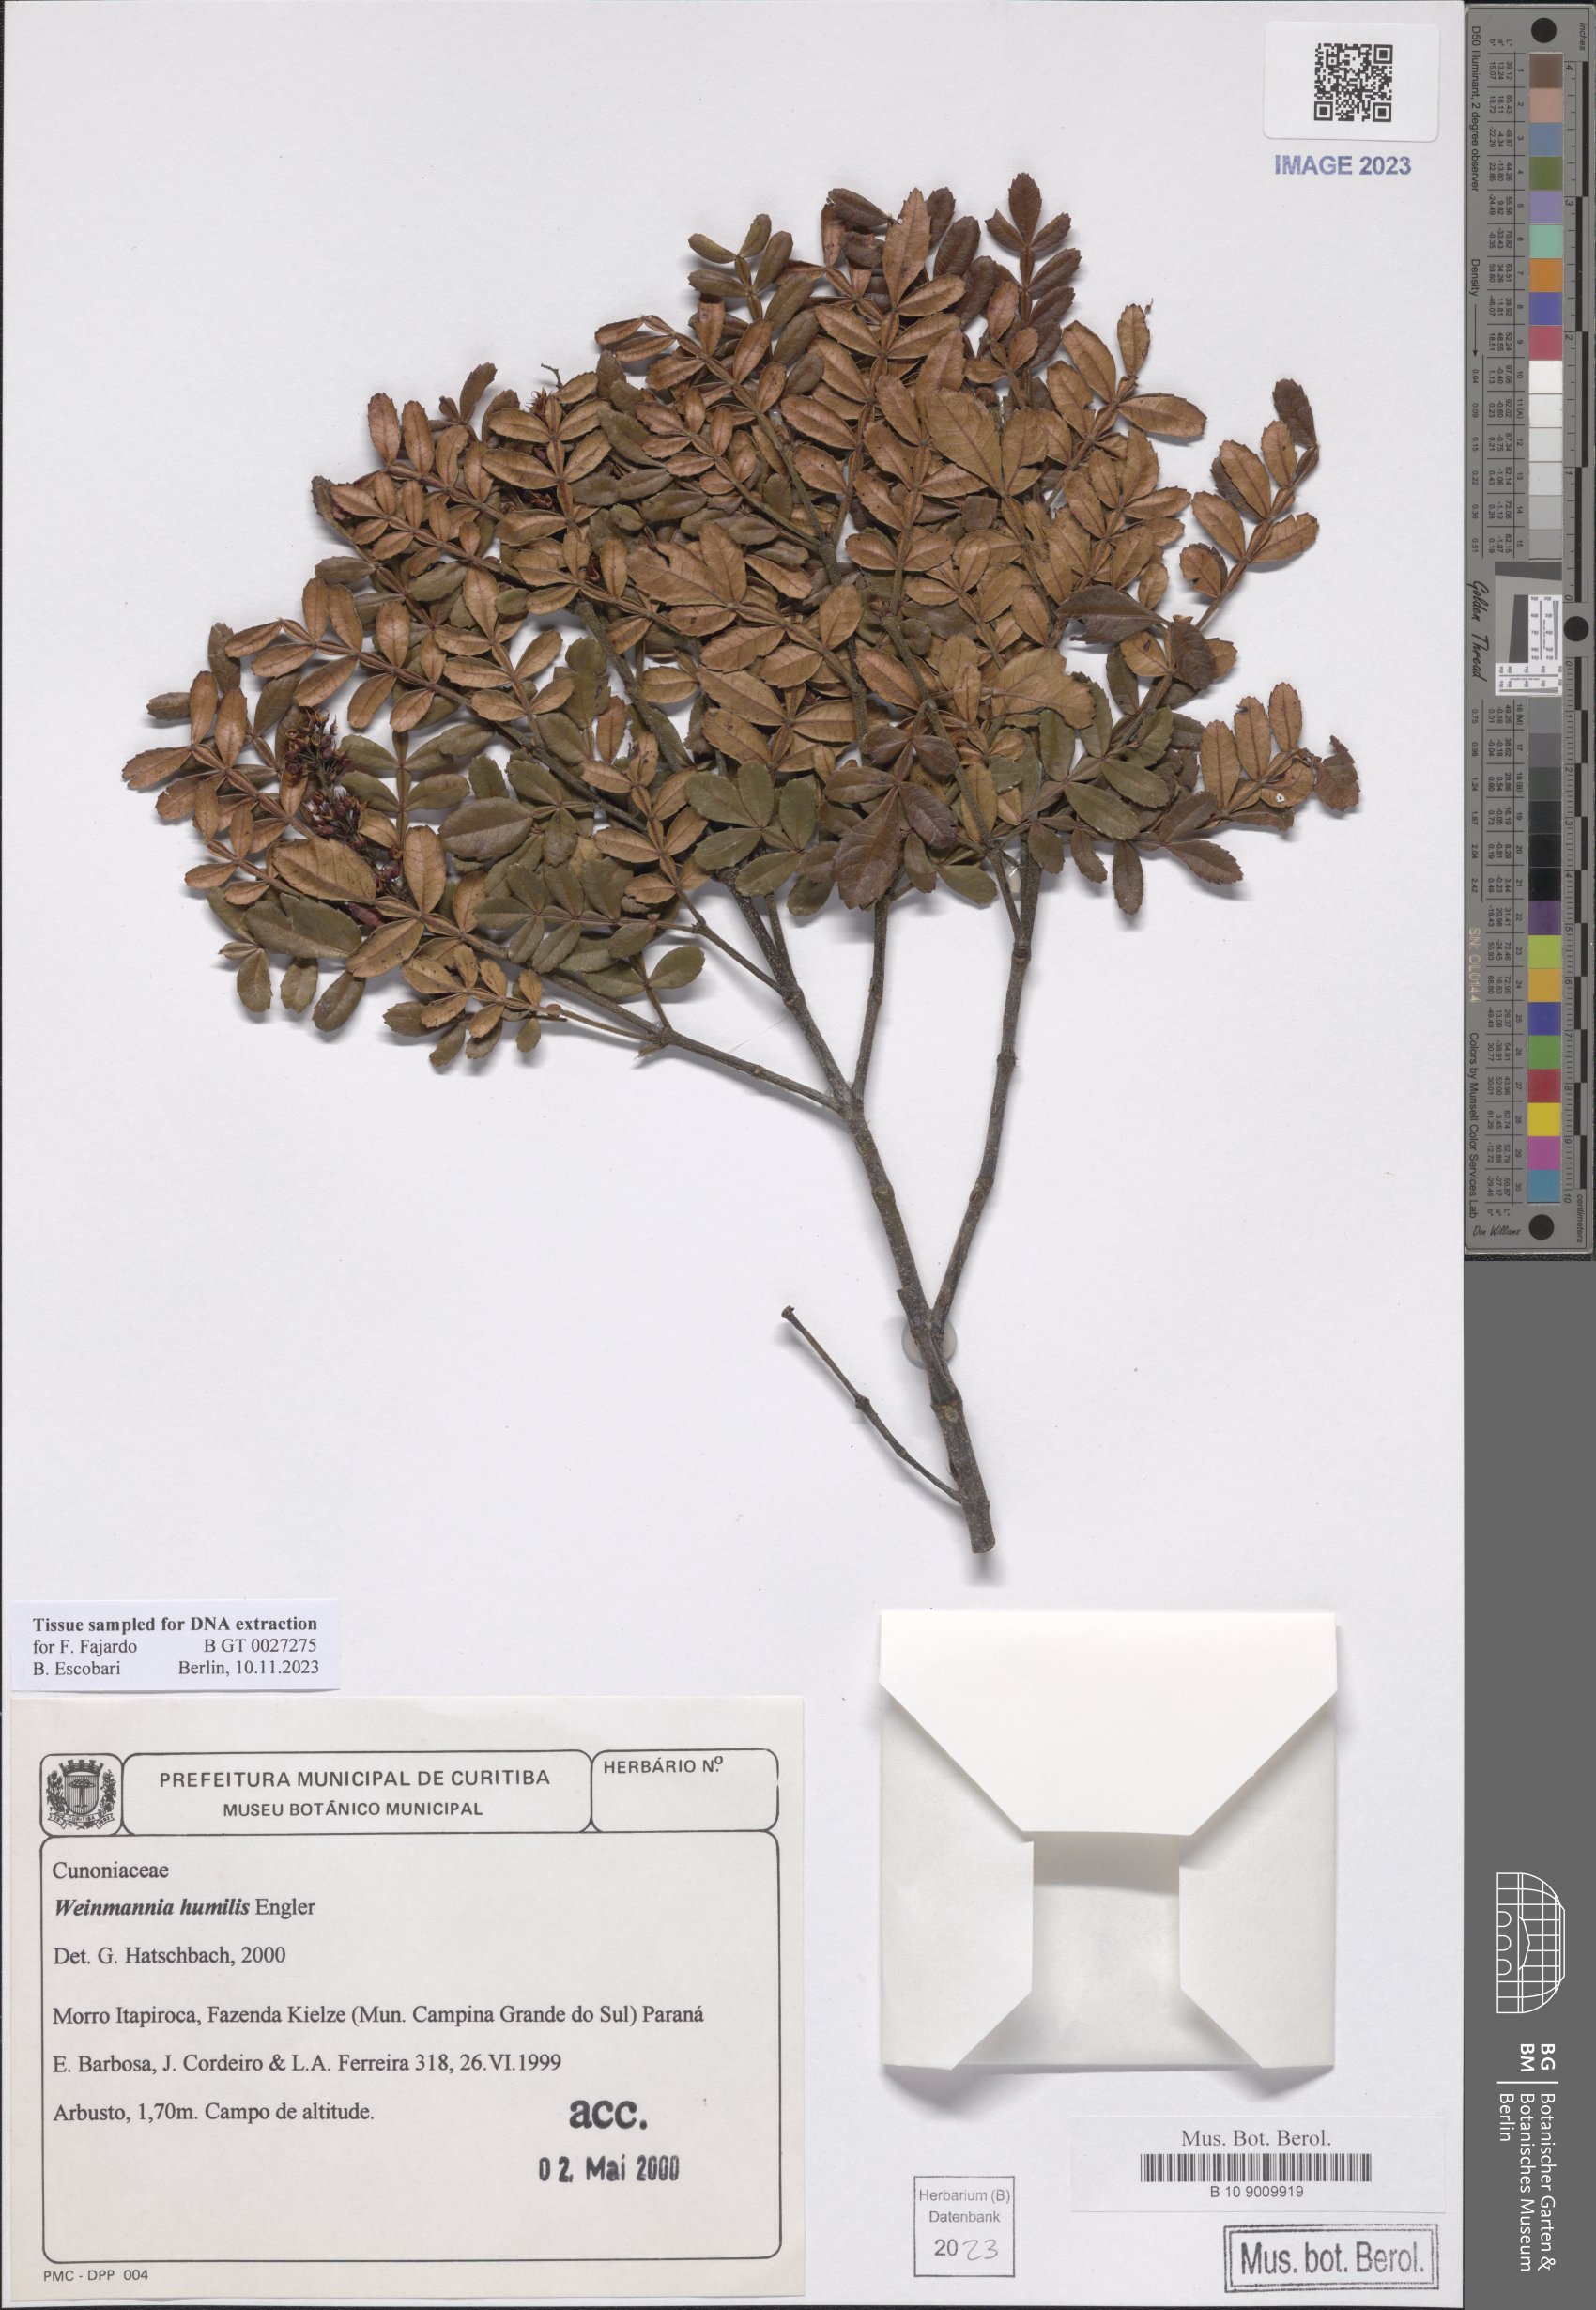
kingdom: Plantae
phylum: Tracheophyta
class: Magnoliopsida
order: Oxalidales
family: Cunoniaceae
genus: Weinmannia
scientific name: Weinmannia humilis
